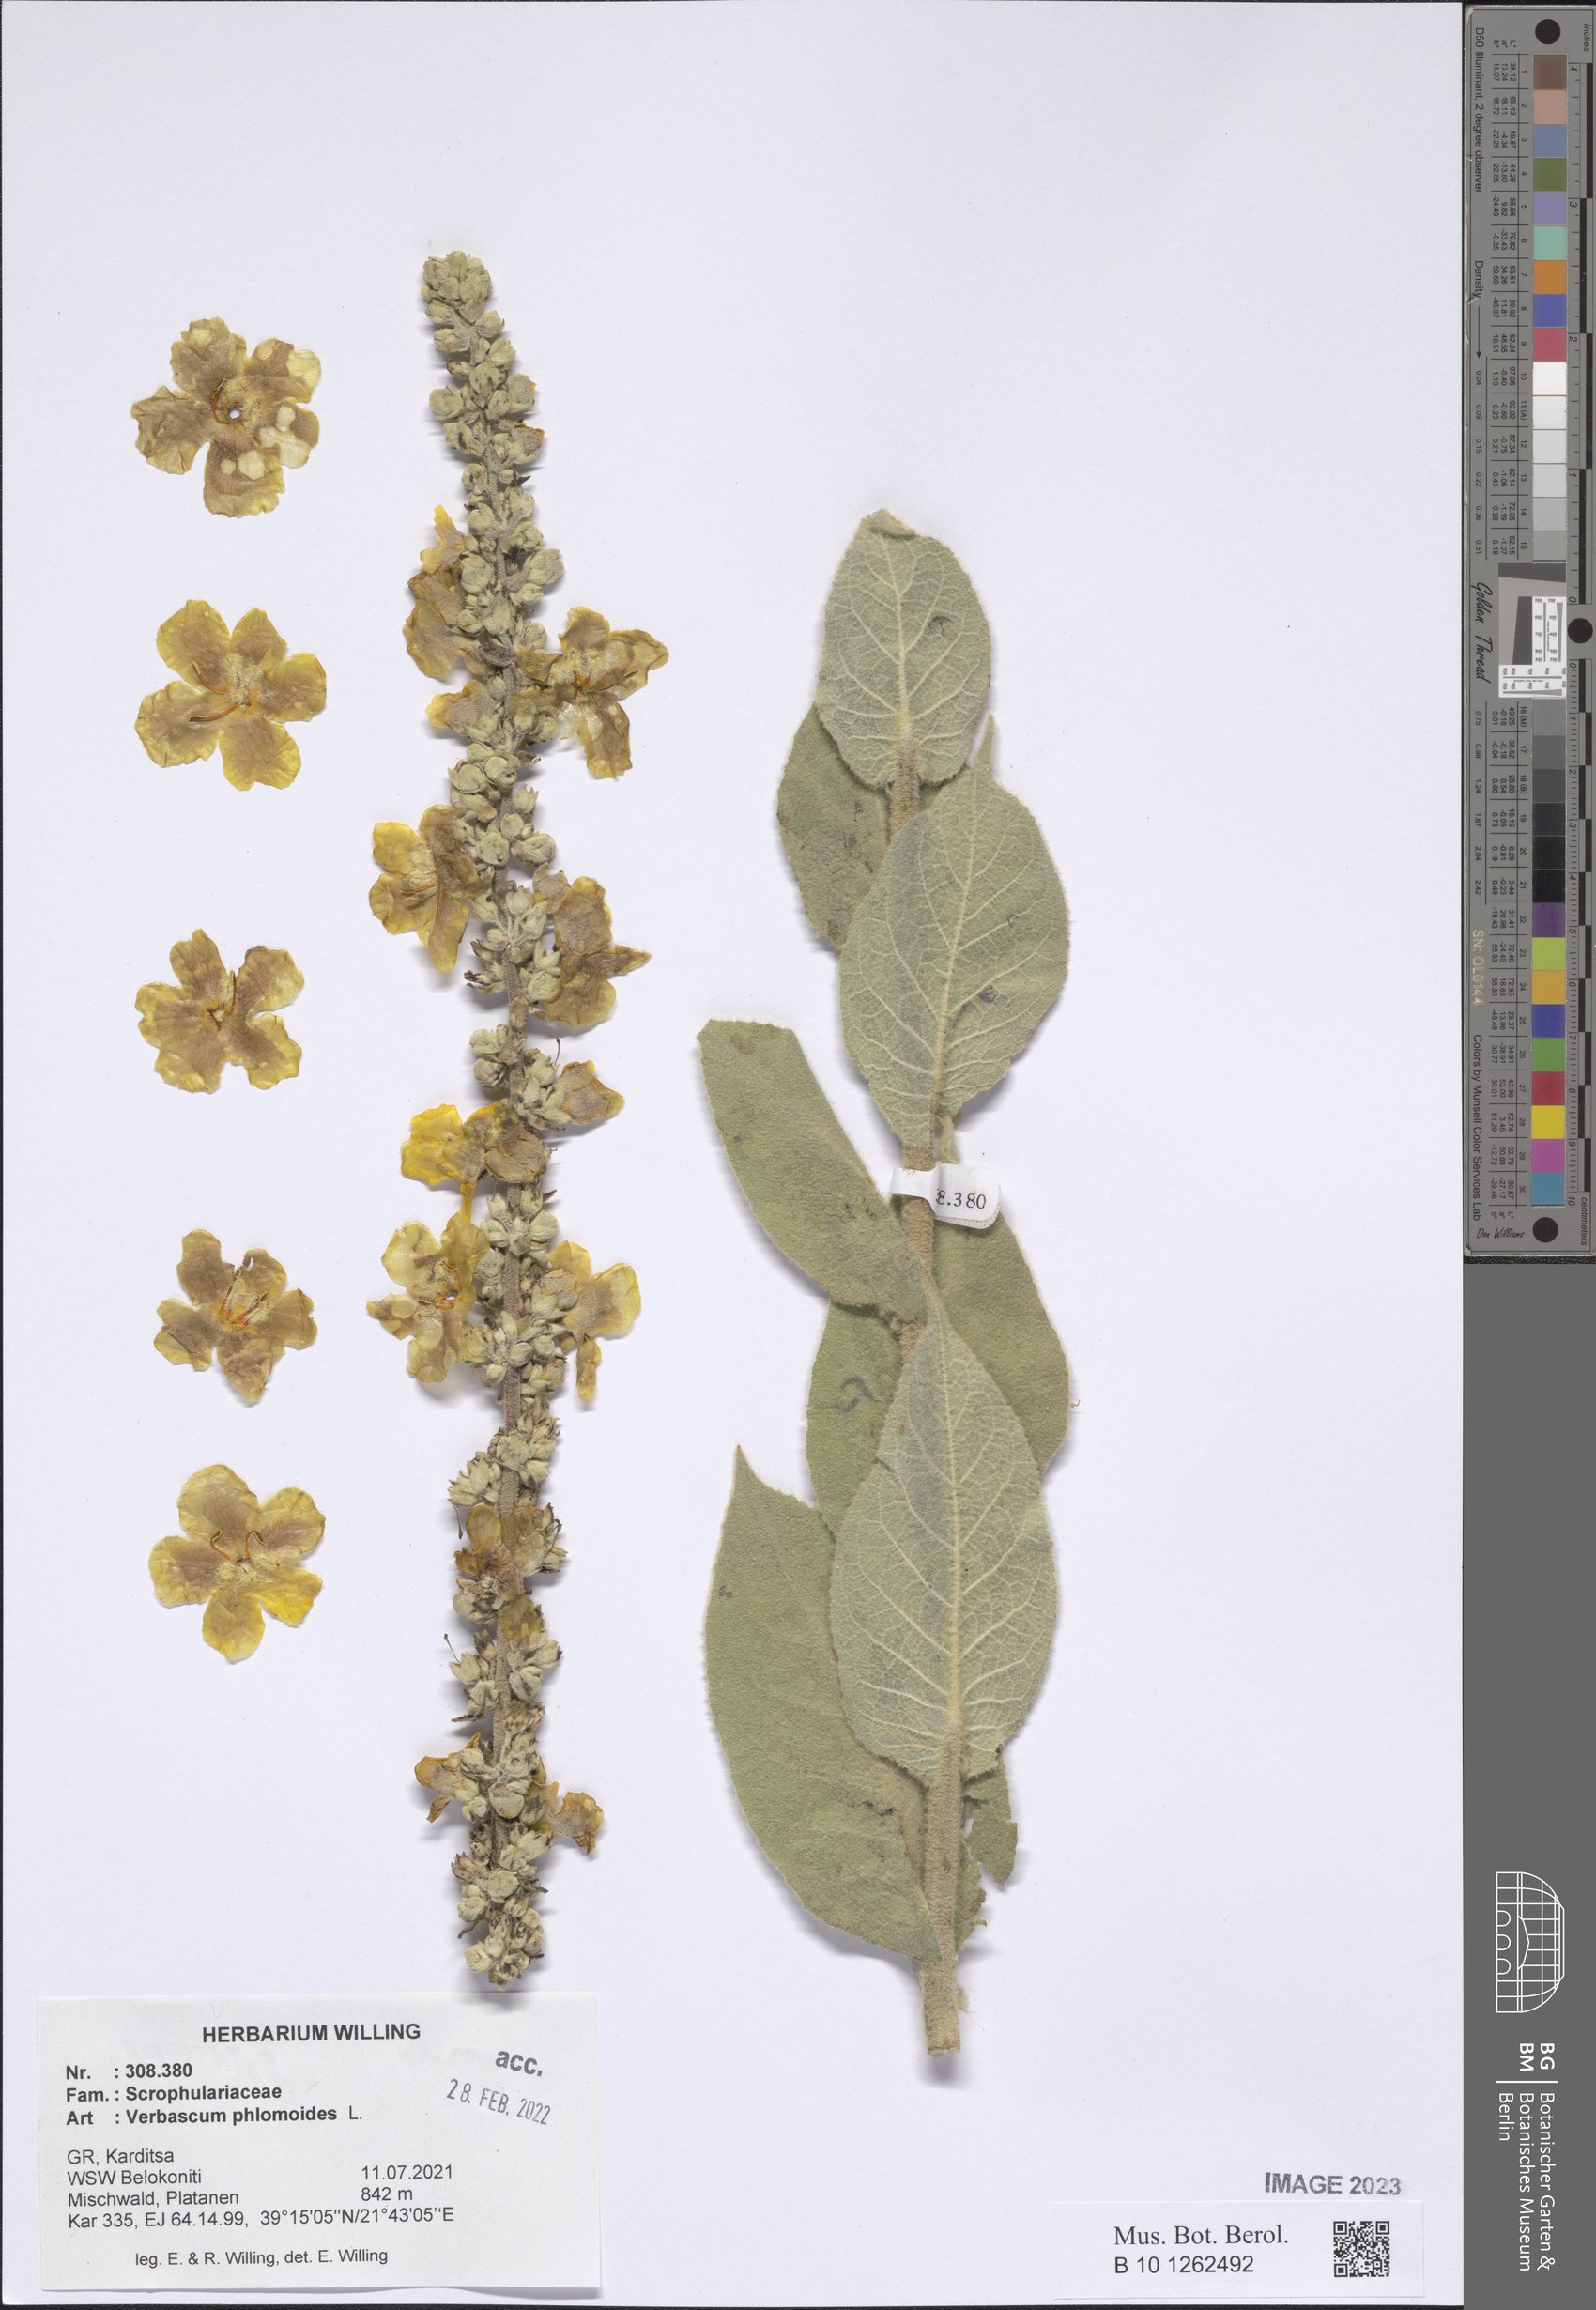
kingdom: Plantae
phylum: Tracheophyta
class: Magnoliopsida
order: Lamiales
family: Scrophulariaceae
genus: Verbascum
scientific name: Verbascum phlomoides
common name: Orange mullein
